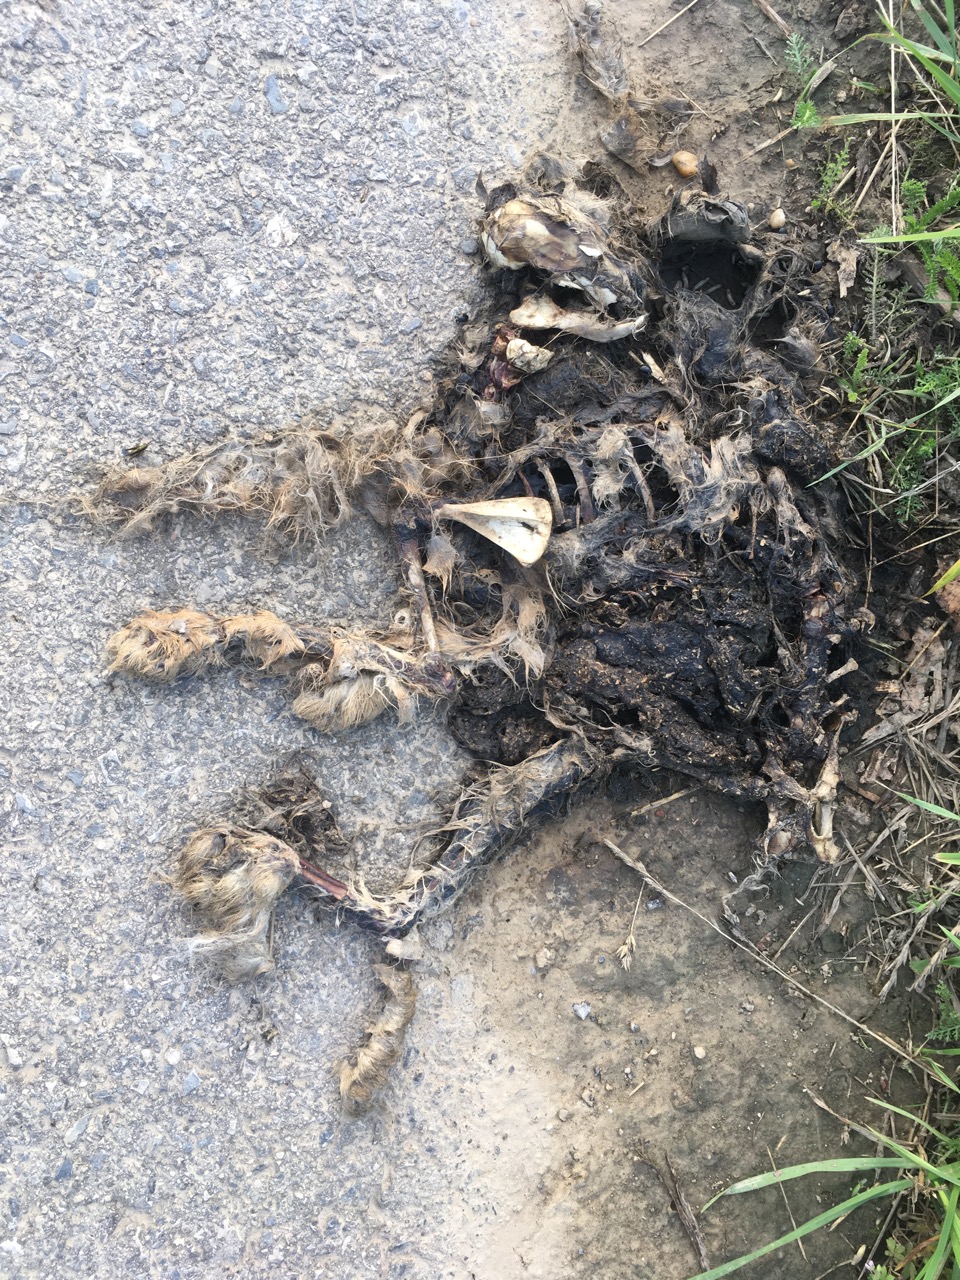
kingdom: Animalia
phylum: Chordata
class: Mammalia
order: Lagomorpha
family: Leporidae
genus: Lepus
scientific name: Lepus europaeus
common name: European hare
